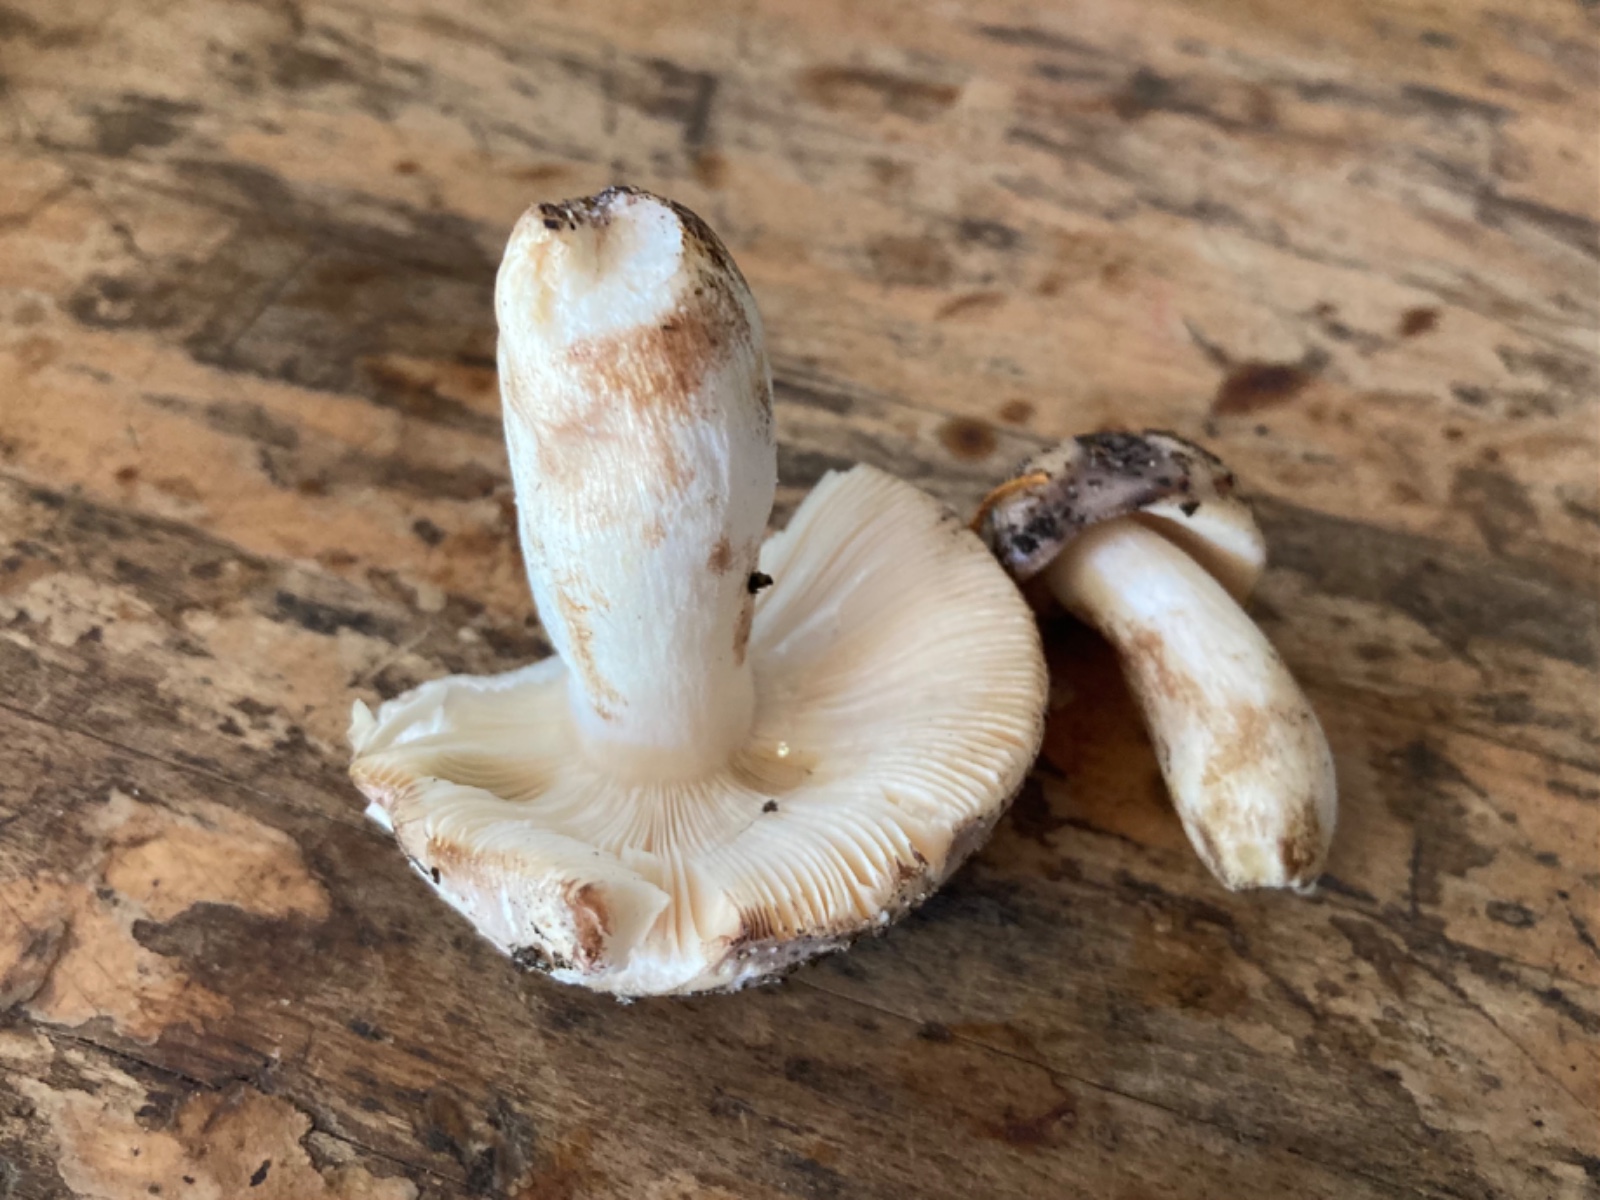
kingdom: Fungi
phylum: Basidiomycota
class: Agaricomycetes
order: Russulales
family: Russulaceae
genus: Russula
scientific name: Russula
